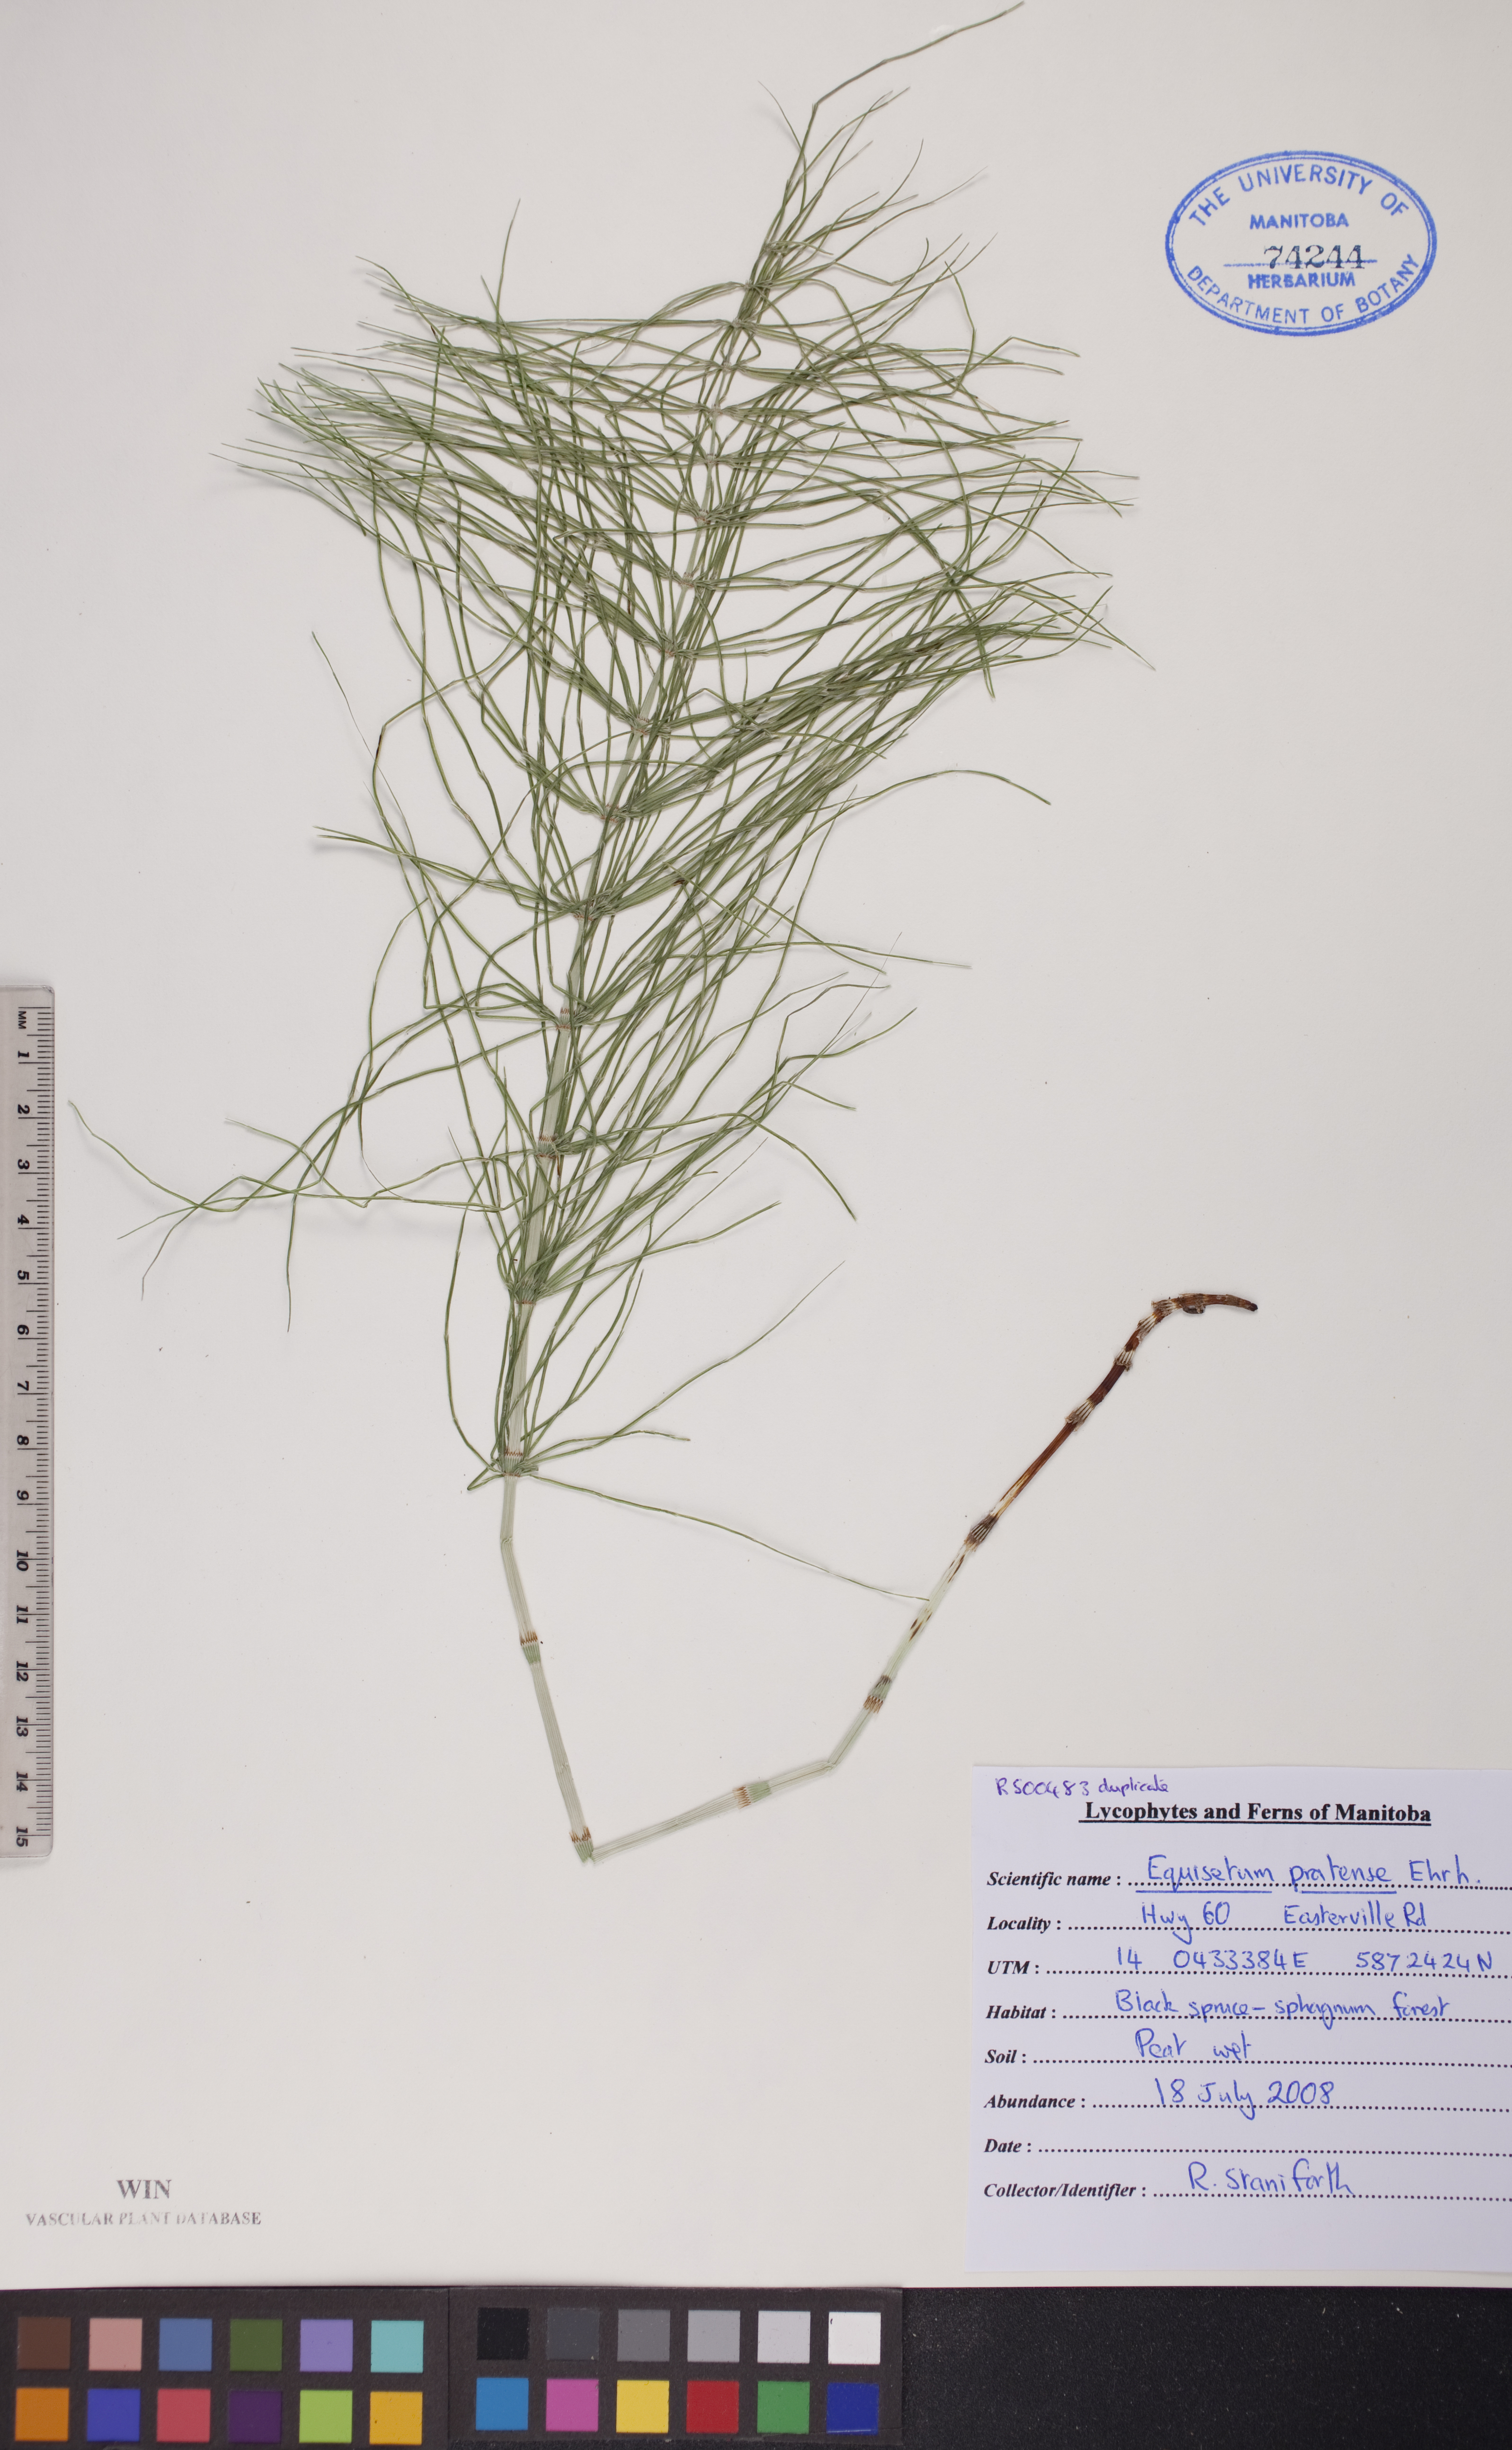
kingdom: Plantae
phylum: Tracheophyta
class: Polypodiopsida
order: Equisetales
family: Equisetaceae
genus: Equisetum
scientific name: Equisetum pratense
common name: Meadow horsetail
